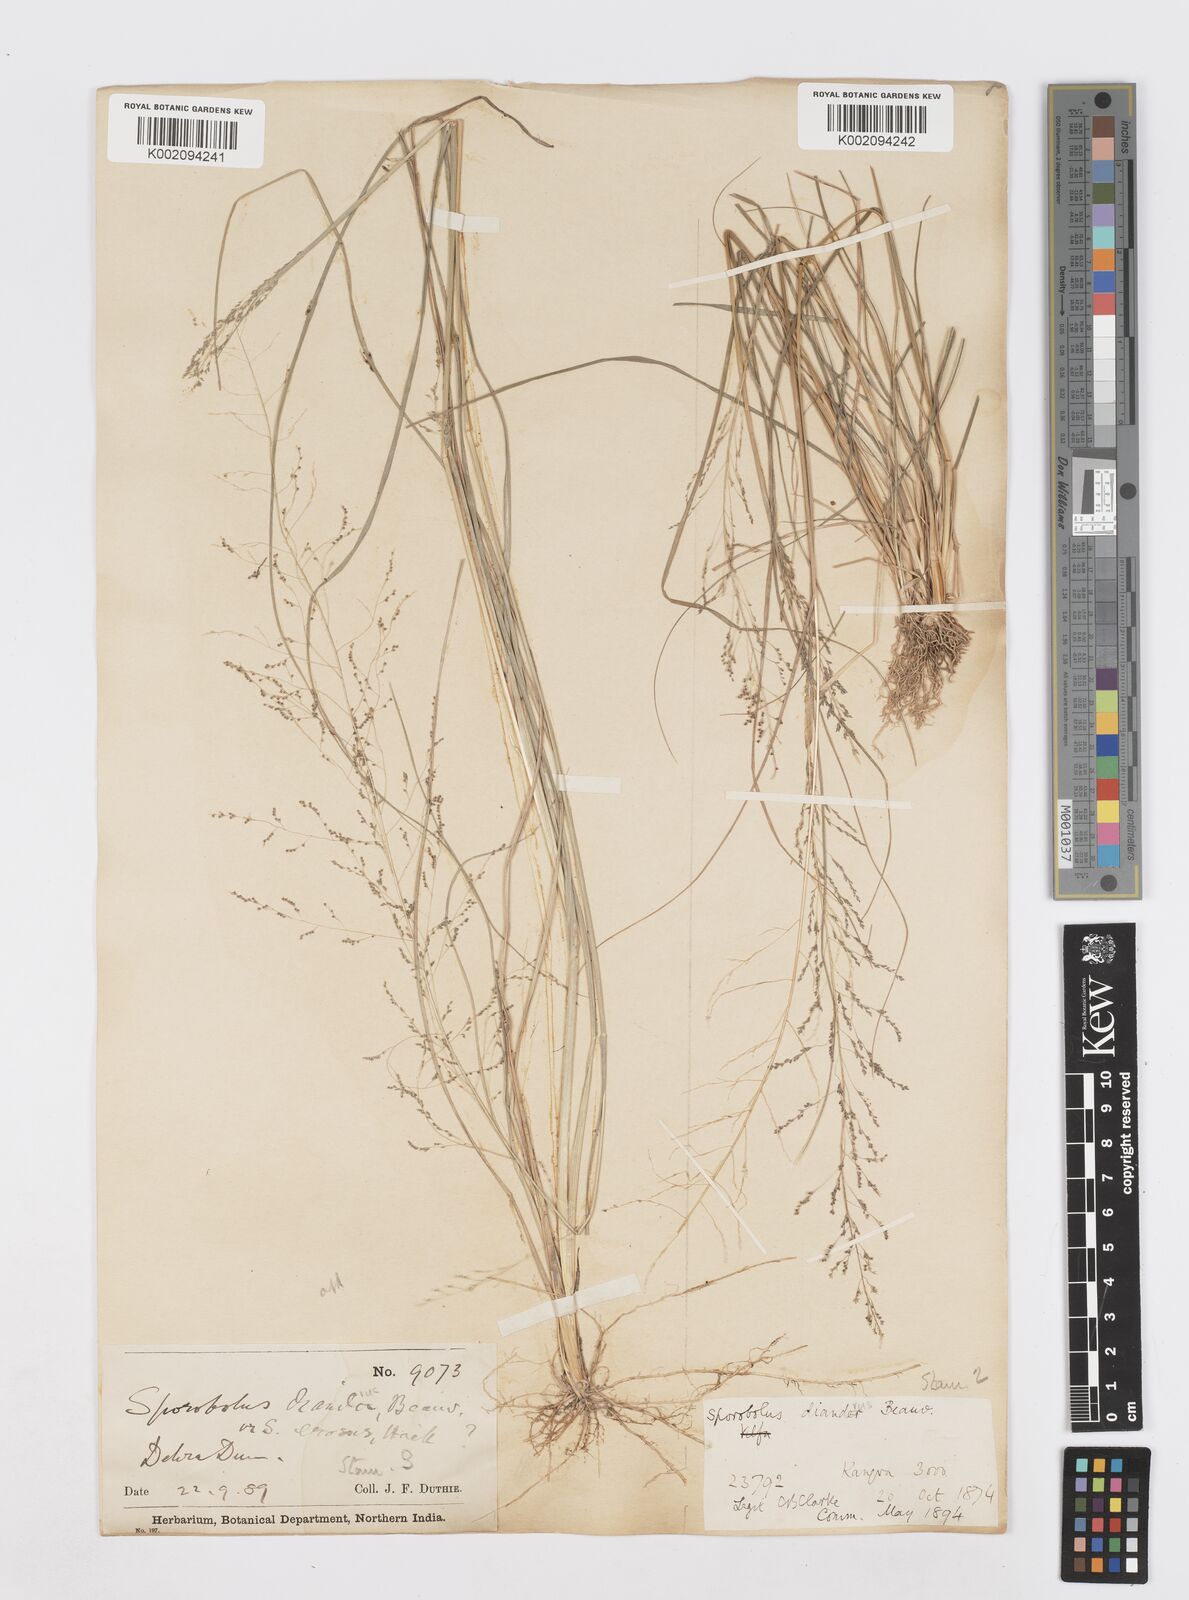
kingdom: Plantae
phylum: Tracheophyta
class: Liliopsida
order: Poales
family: Poaceae
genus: Sporobolus
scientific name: Sporobolus
